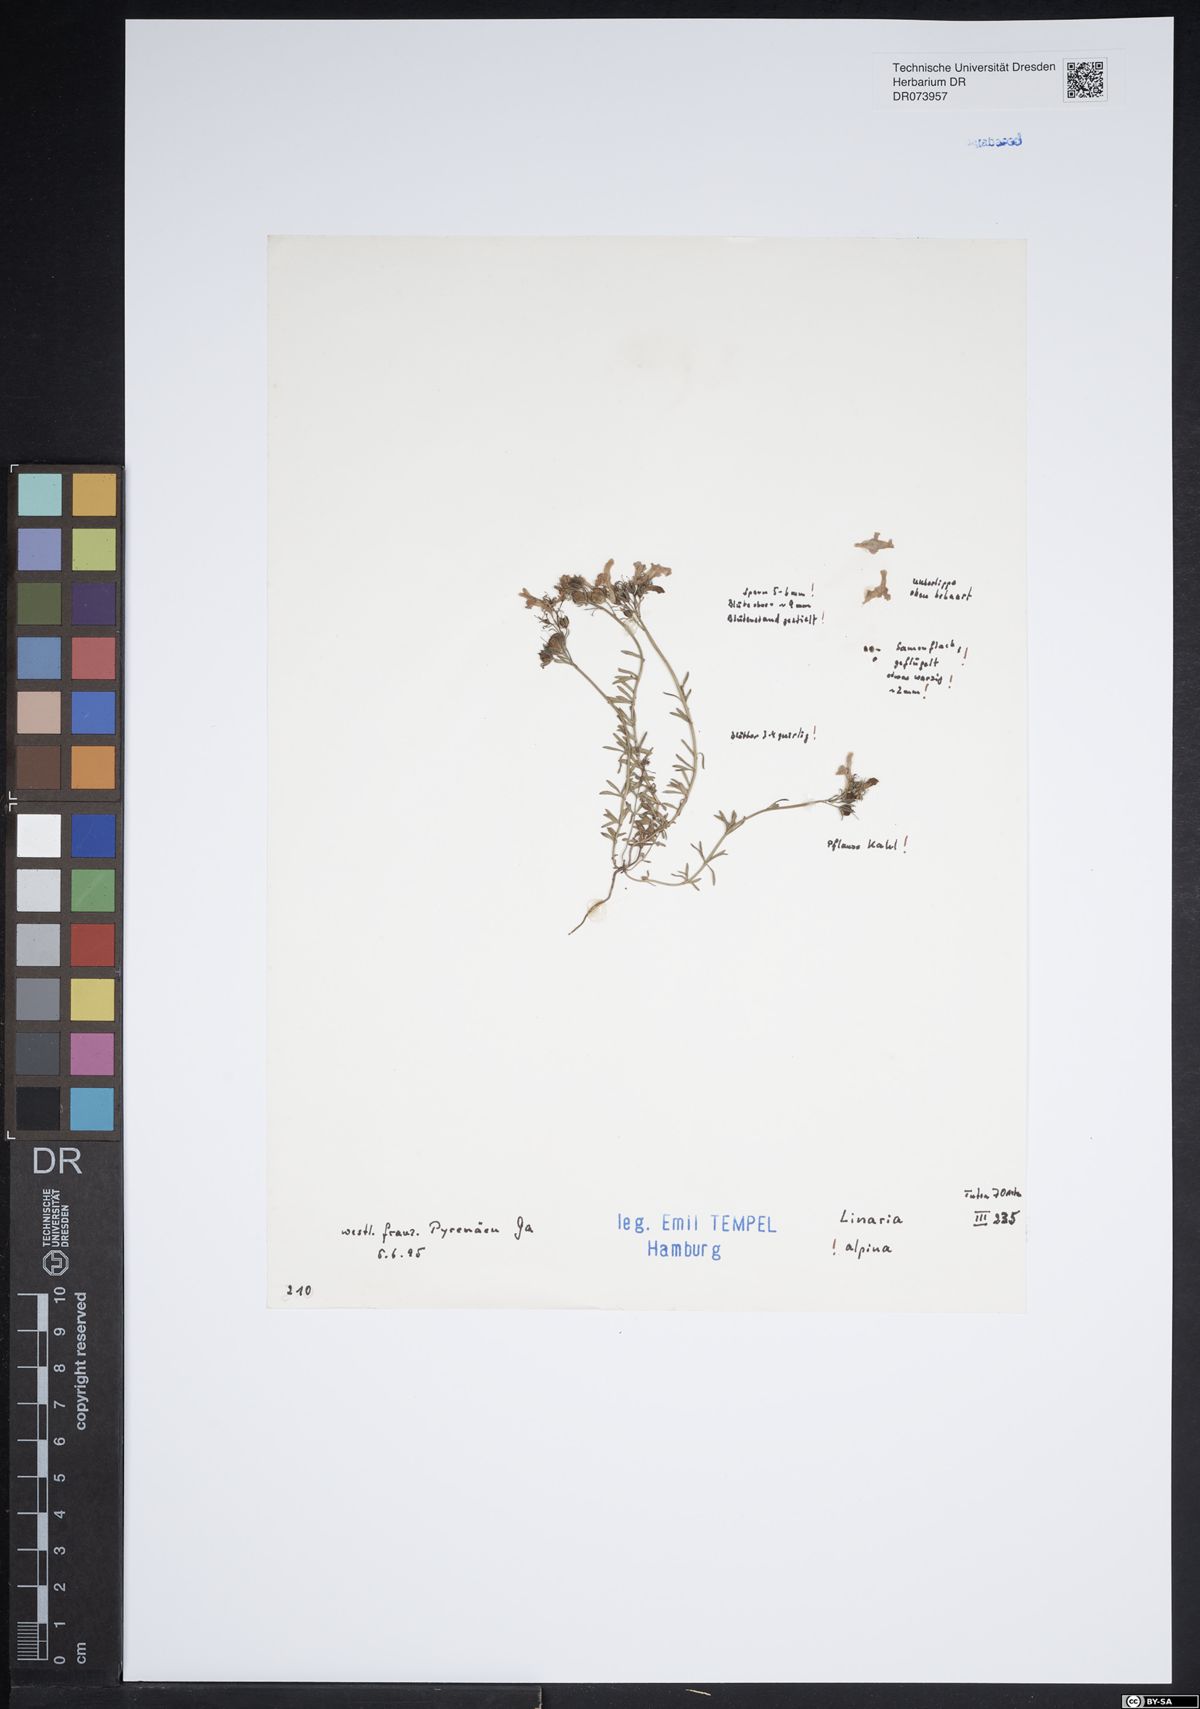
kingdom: Plantae
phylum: Tracheophyta
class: Magnoliopsida
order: Lamiales
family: Plantaginaceae
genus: Linaria
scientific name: Linaria alpina
